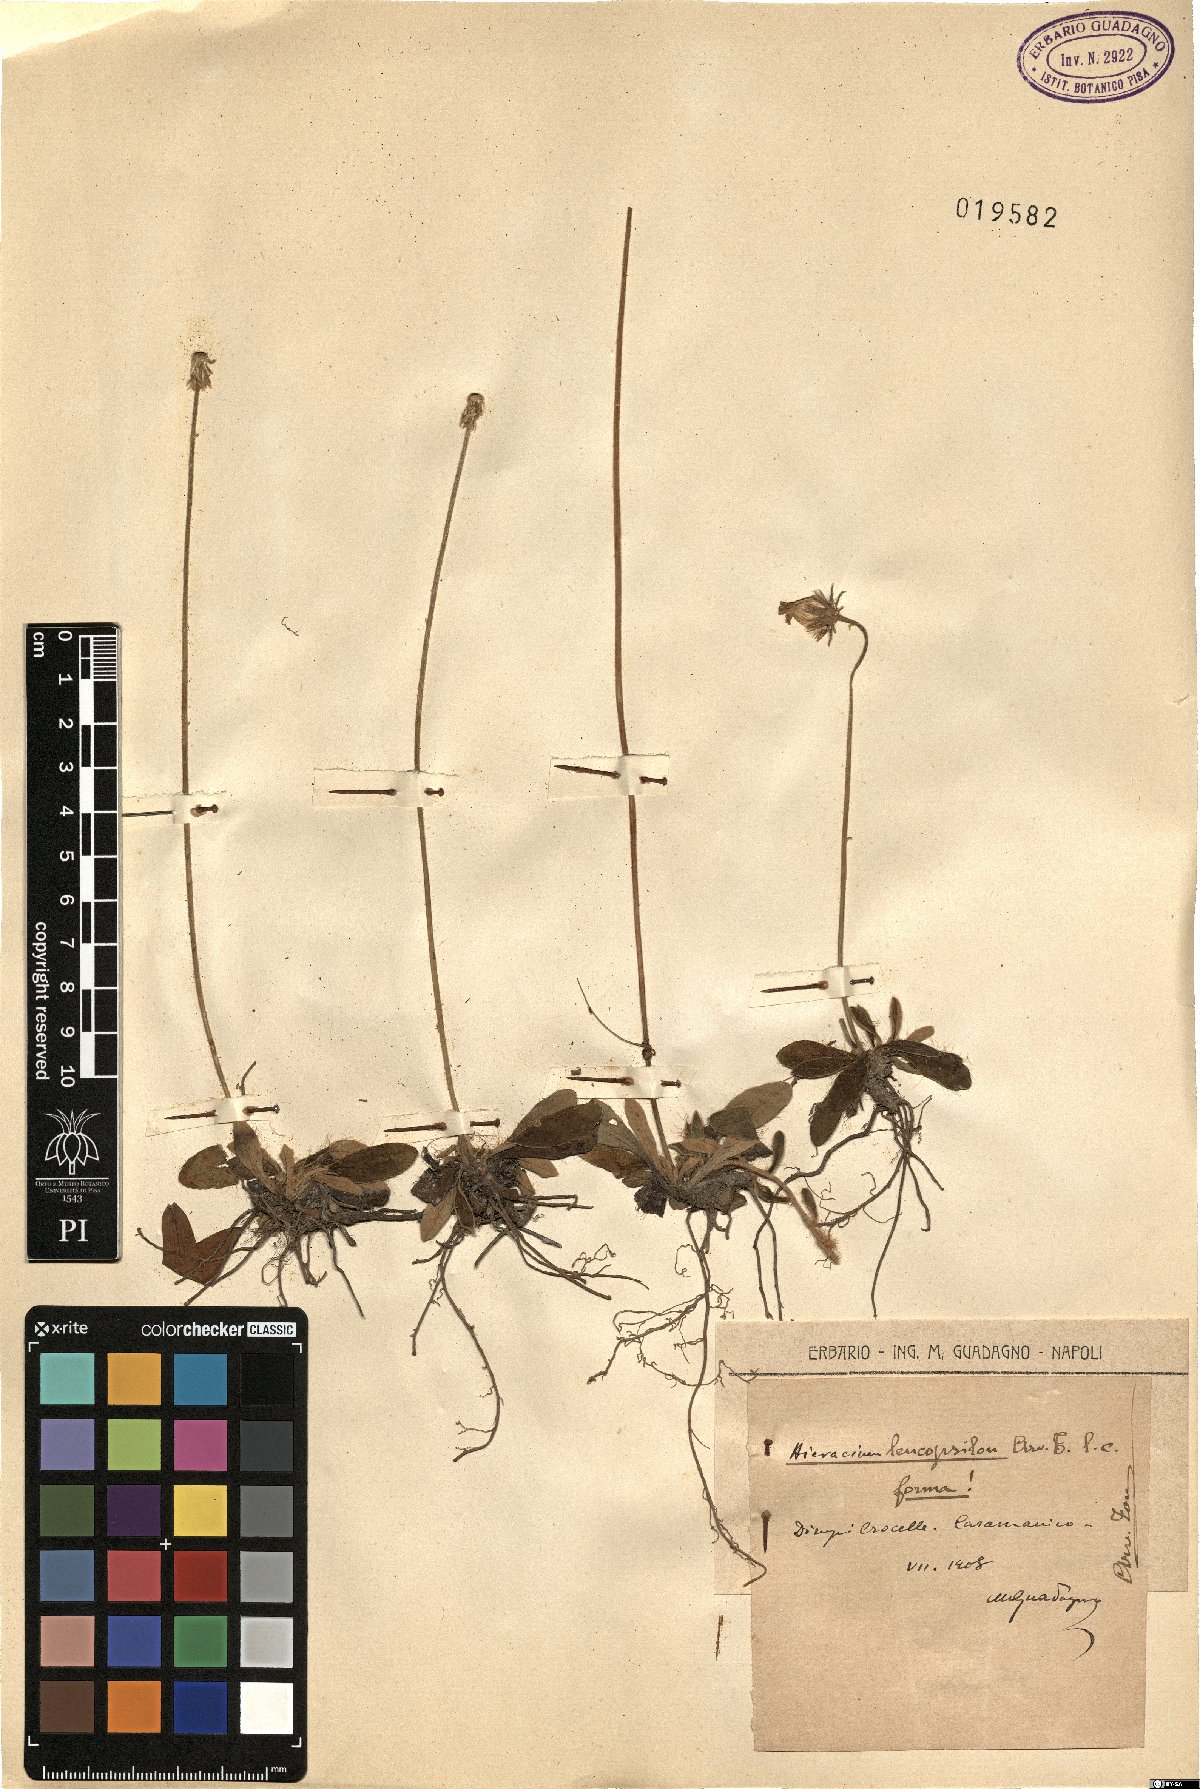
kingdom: Plantae
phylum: Tracheophyta
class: Magnoliopsida
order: Asterales
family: Asteraceae
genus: Pilosella
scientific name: Pilosella leucopsilon
